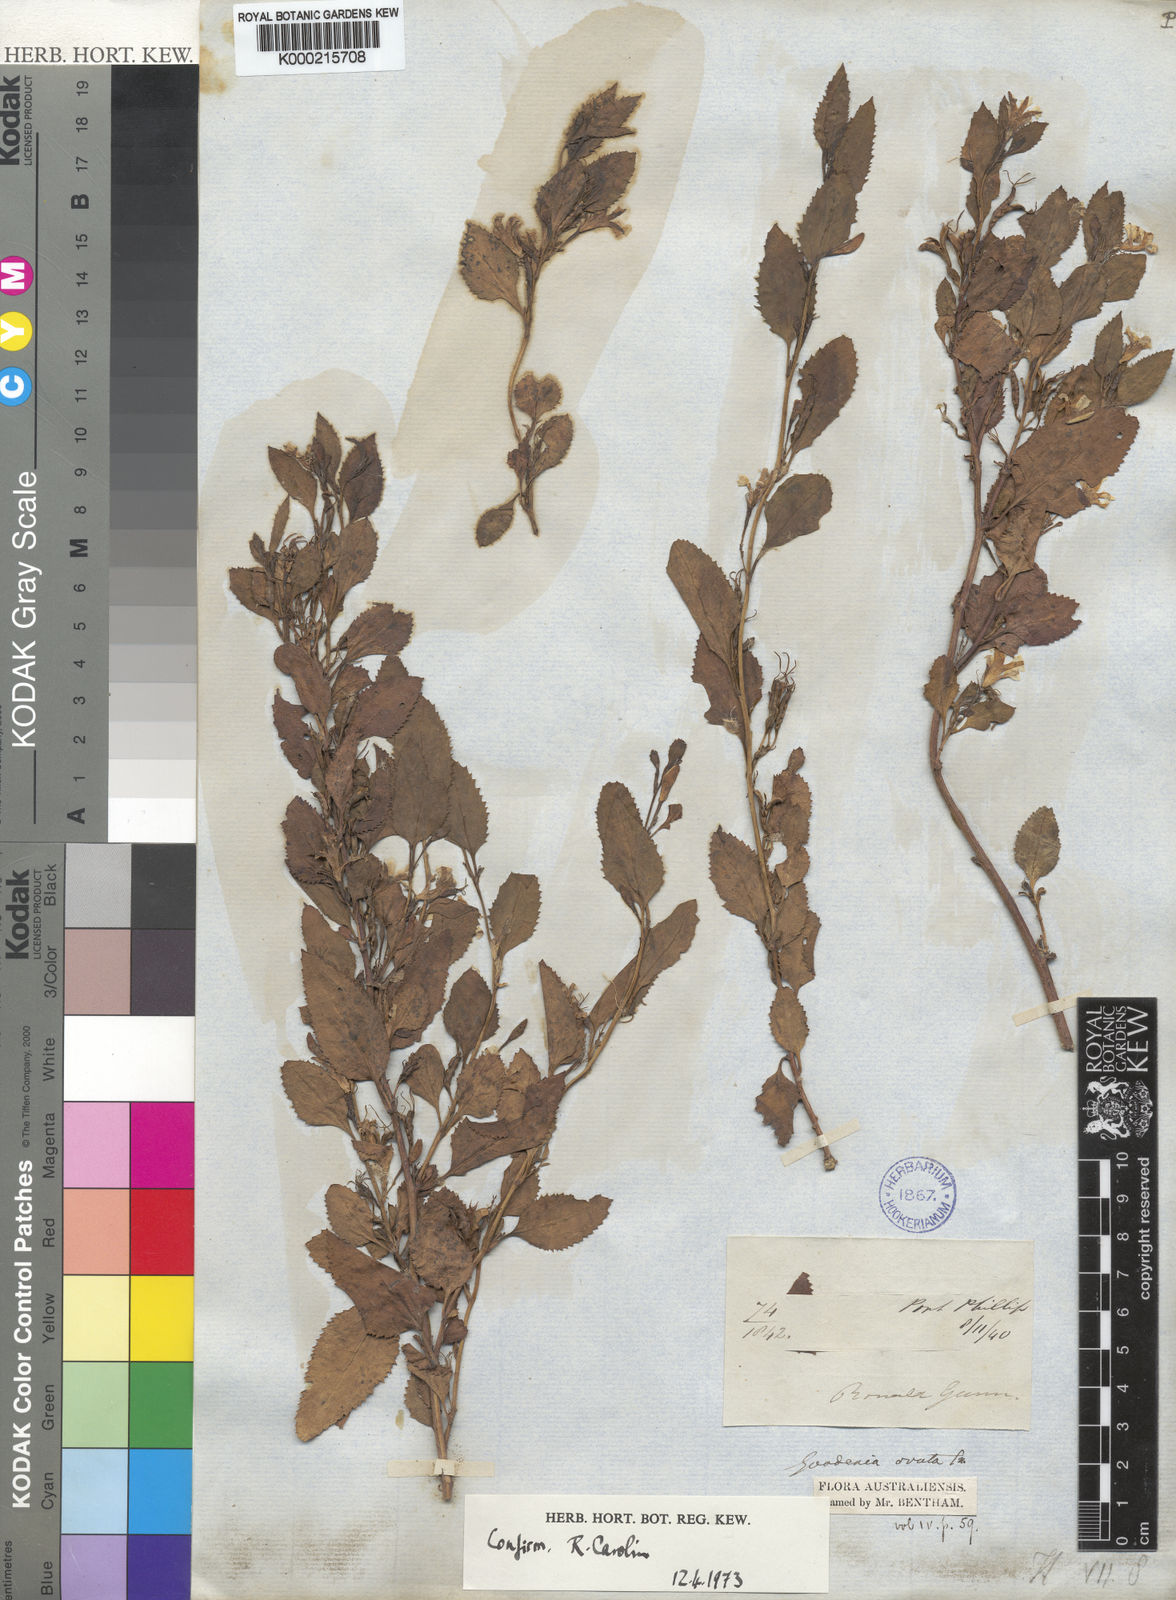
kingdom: Plantae
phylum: Tracheophyta
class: Magnoliopsida
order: Asterales
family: Goodeniaceae
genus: Goodenia
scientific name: Goodenia ovata
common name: Hop goodenia
